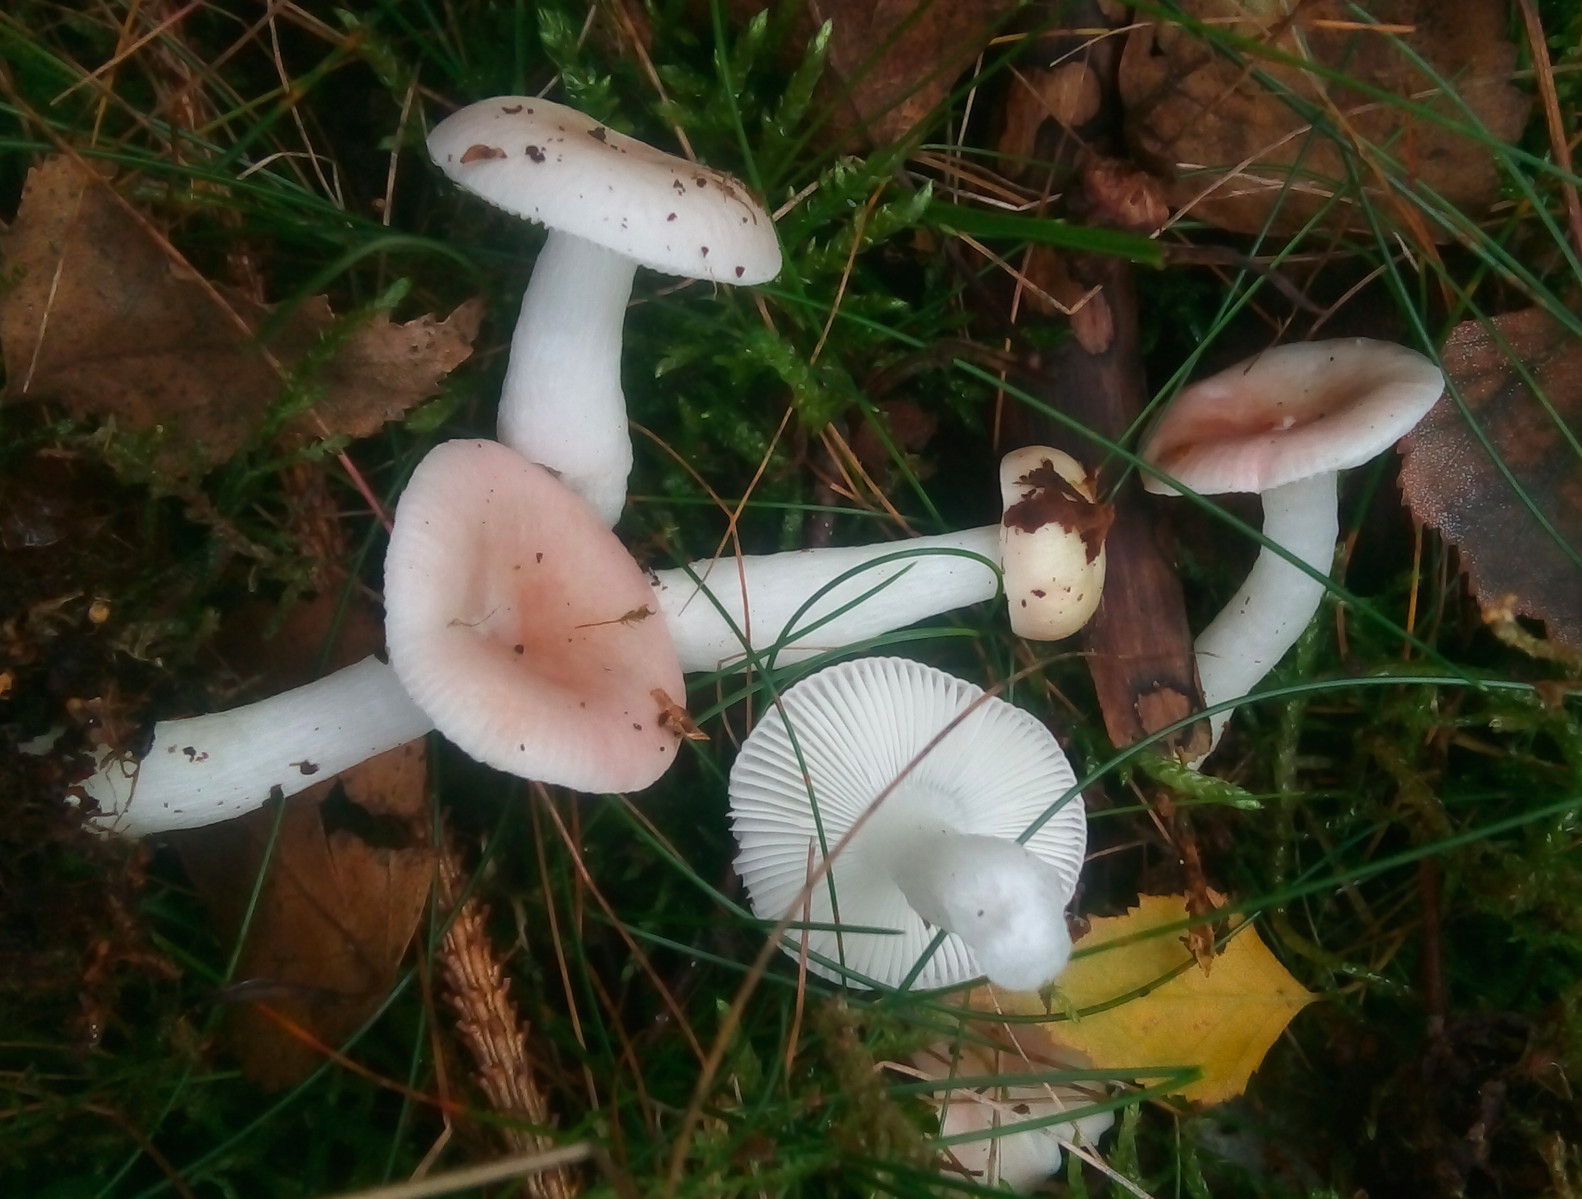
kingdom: Fungi
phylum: Basidiomycota
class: Agaricomycetes
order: Russulales
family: Russulaceae
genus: Russula
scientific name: Russula betularum
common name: bleg gift-skørhat
